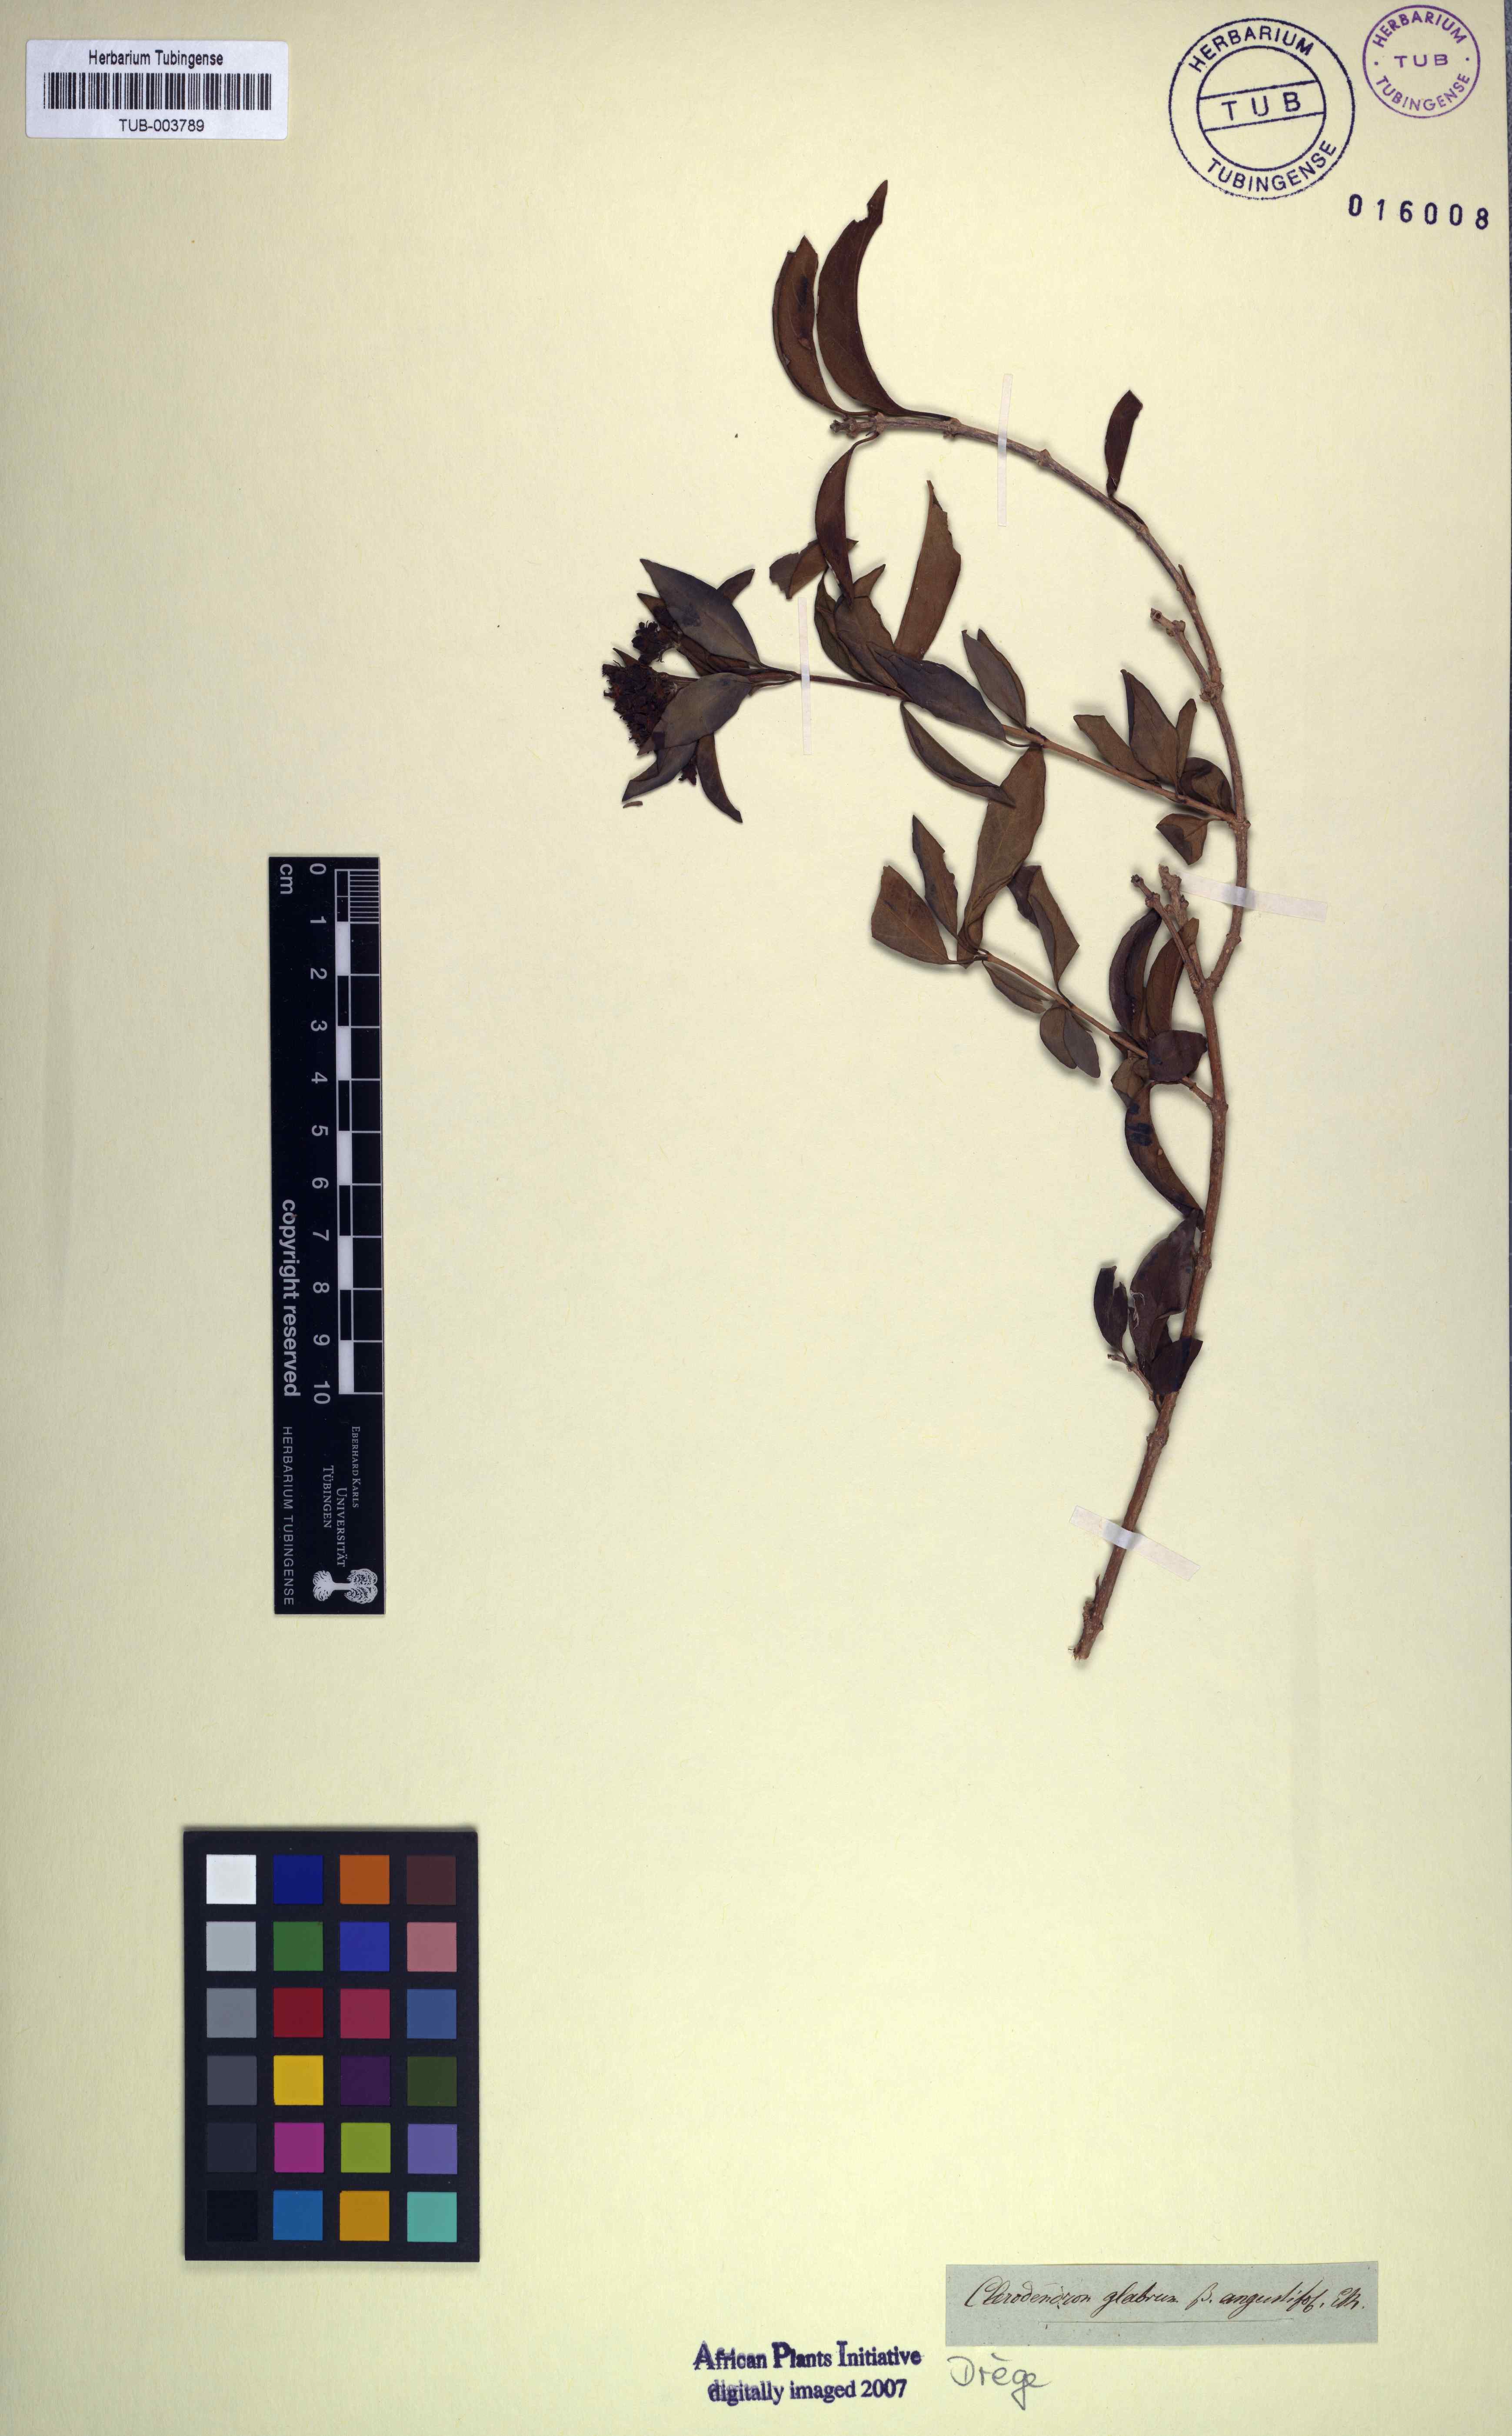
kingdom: Plantae
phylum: Tracheophyta
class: Magnoliopsida
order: Lamiales
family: Lamiaceae
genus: Volkameria
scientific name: Volkameria glabra
